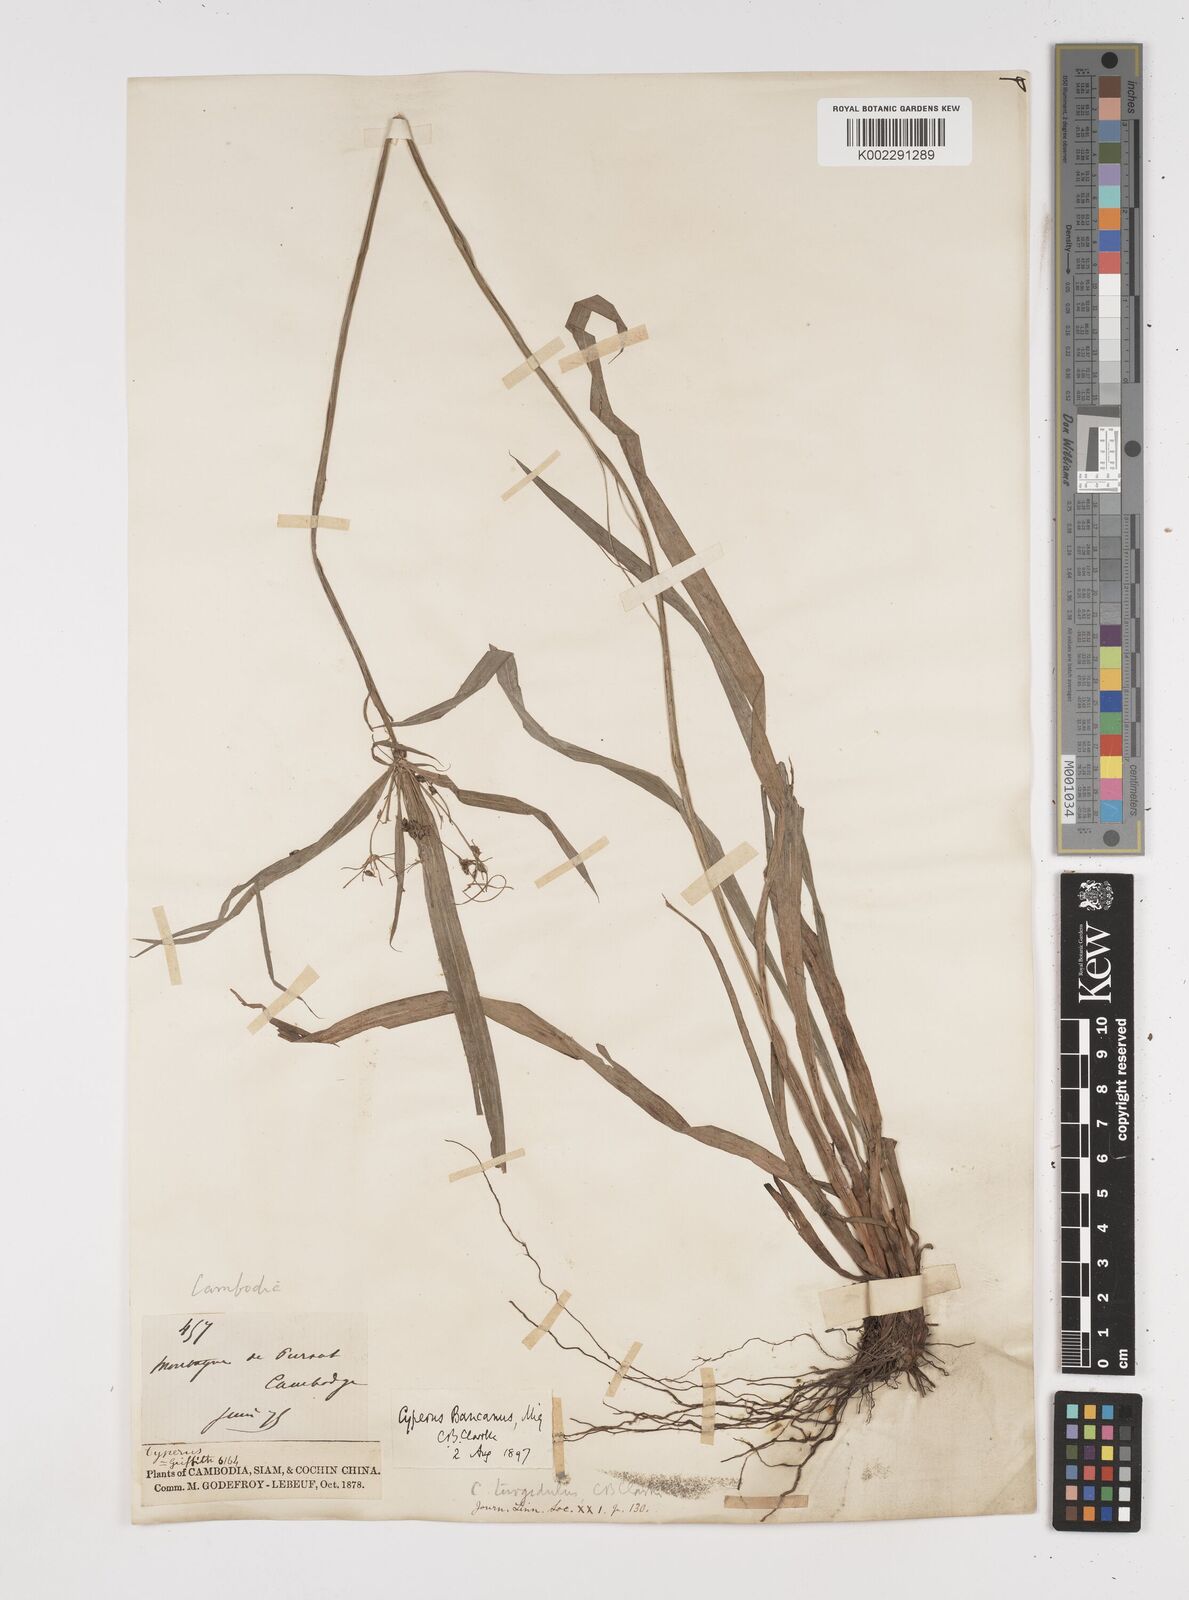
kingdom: Plantae
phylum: Tracheophyta
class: Liliopsida
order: Poales
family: Cyperaceae
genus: Cyperus
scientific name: Cyperus trialatus
